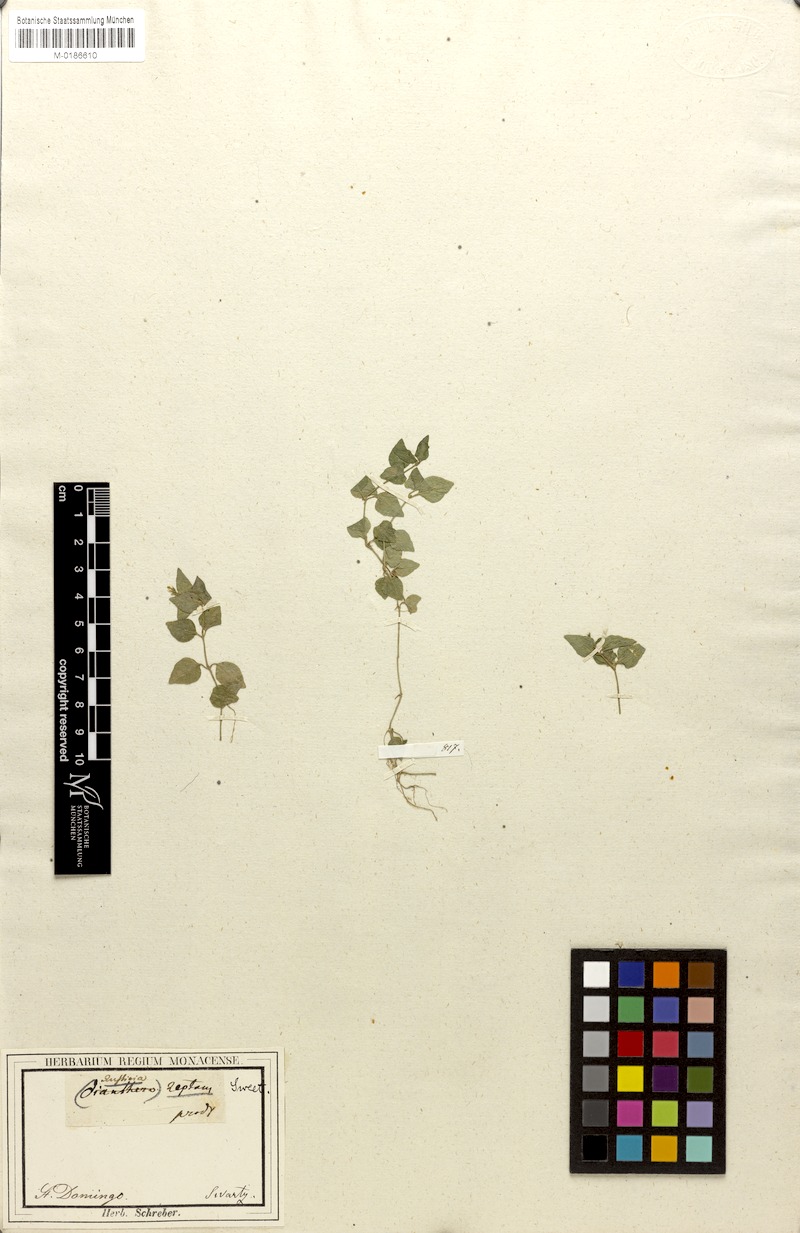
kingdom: Plantae
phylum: Tracheophyta
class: Magnoliopsida
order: Lamiales
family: Acanthaceae
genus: Anisostachya
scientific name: Anisostachya reptans
